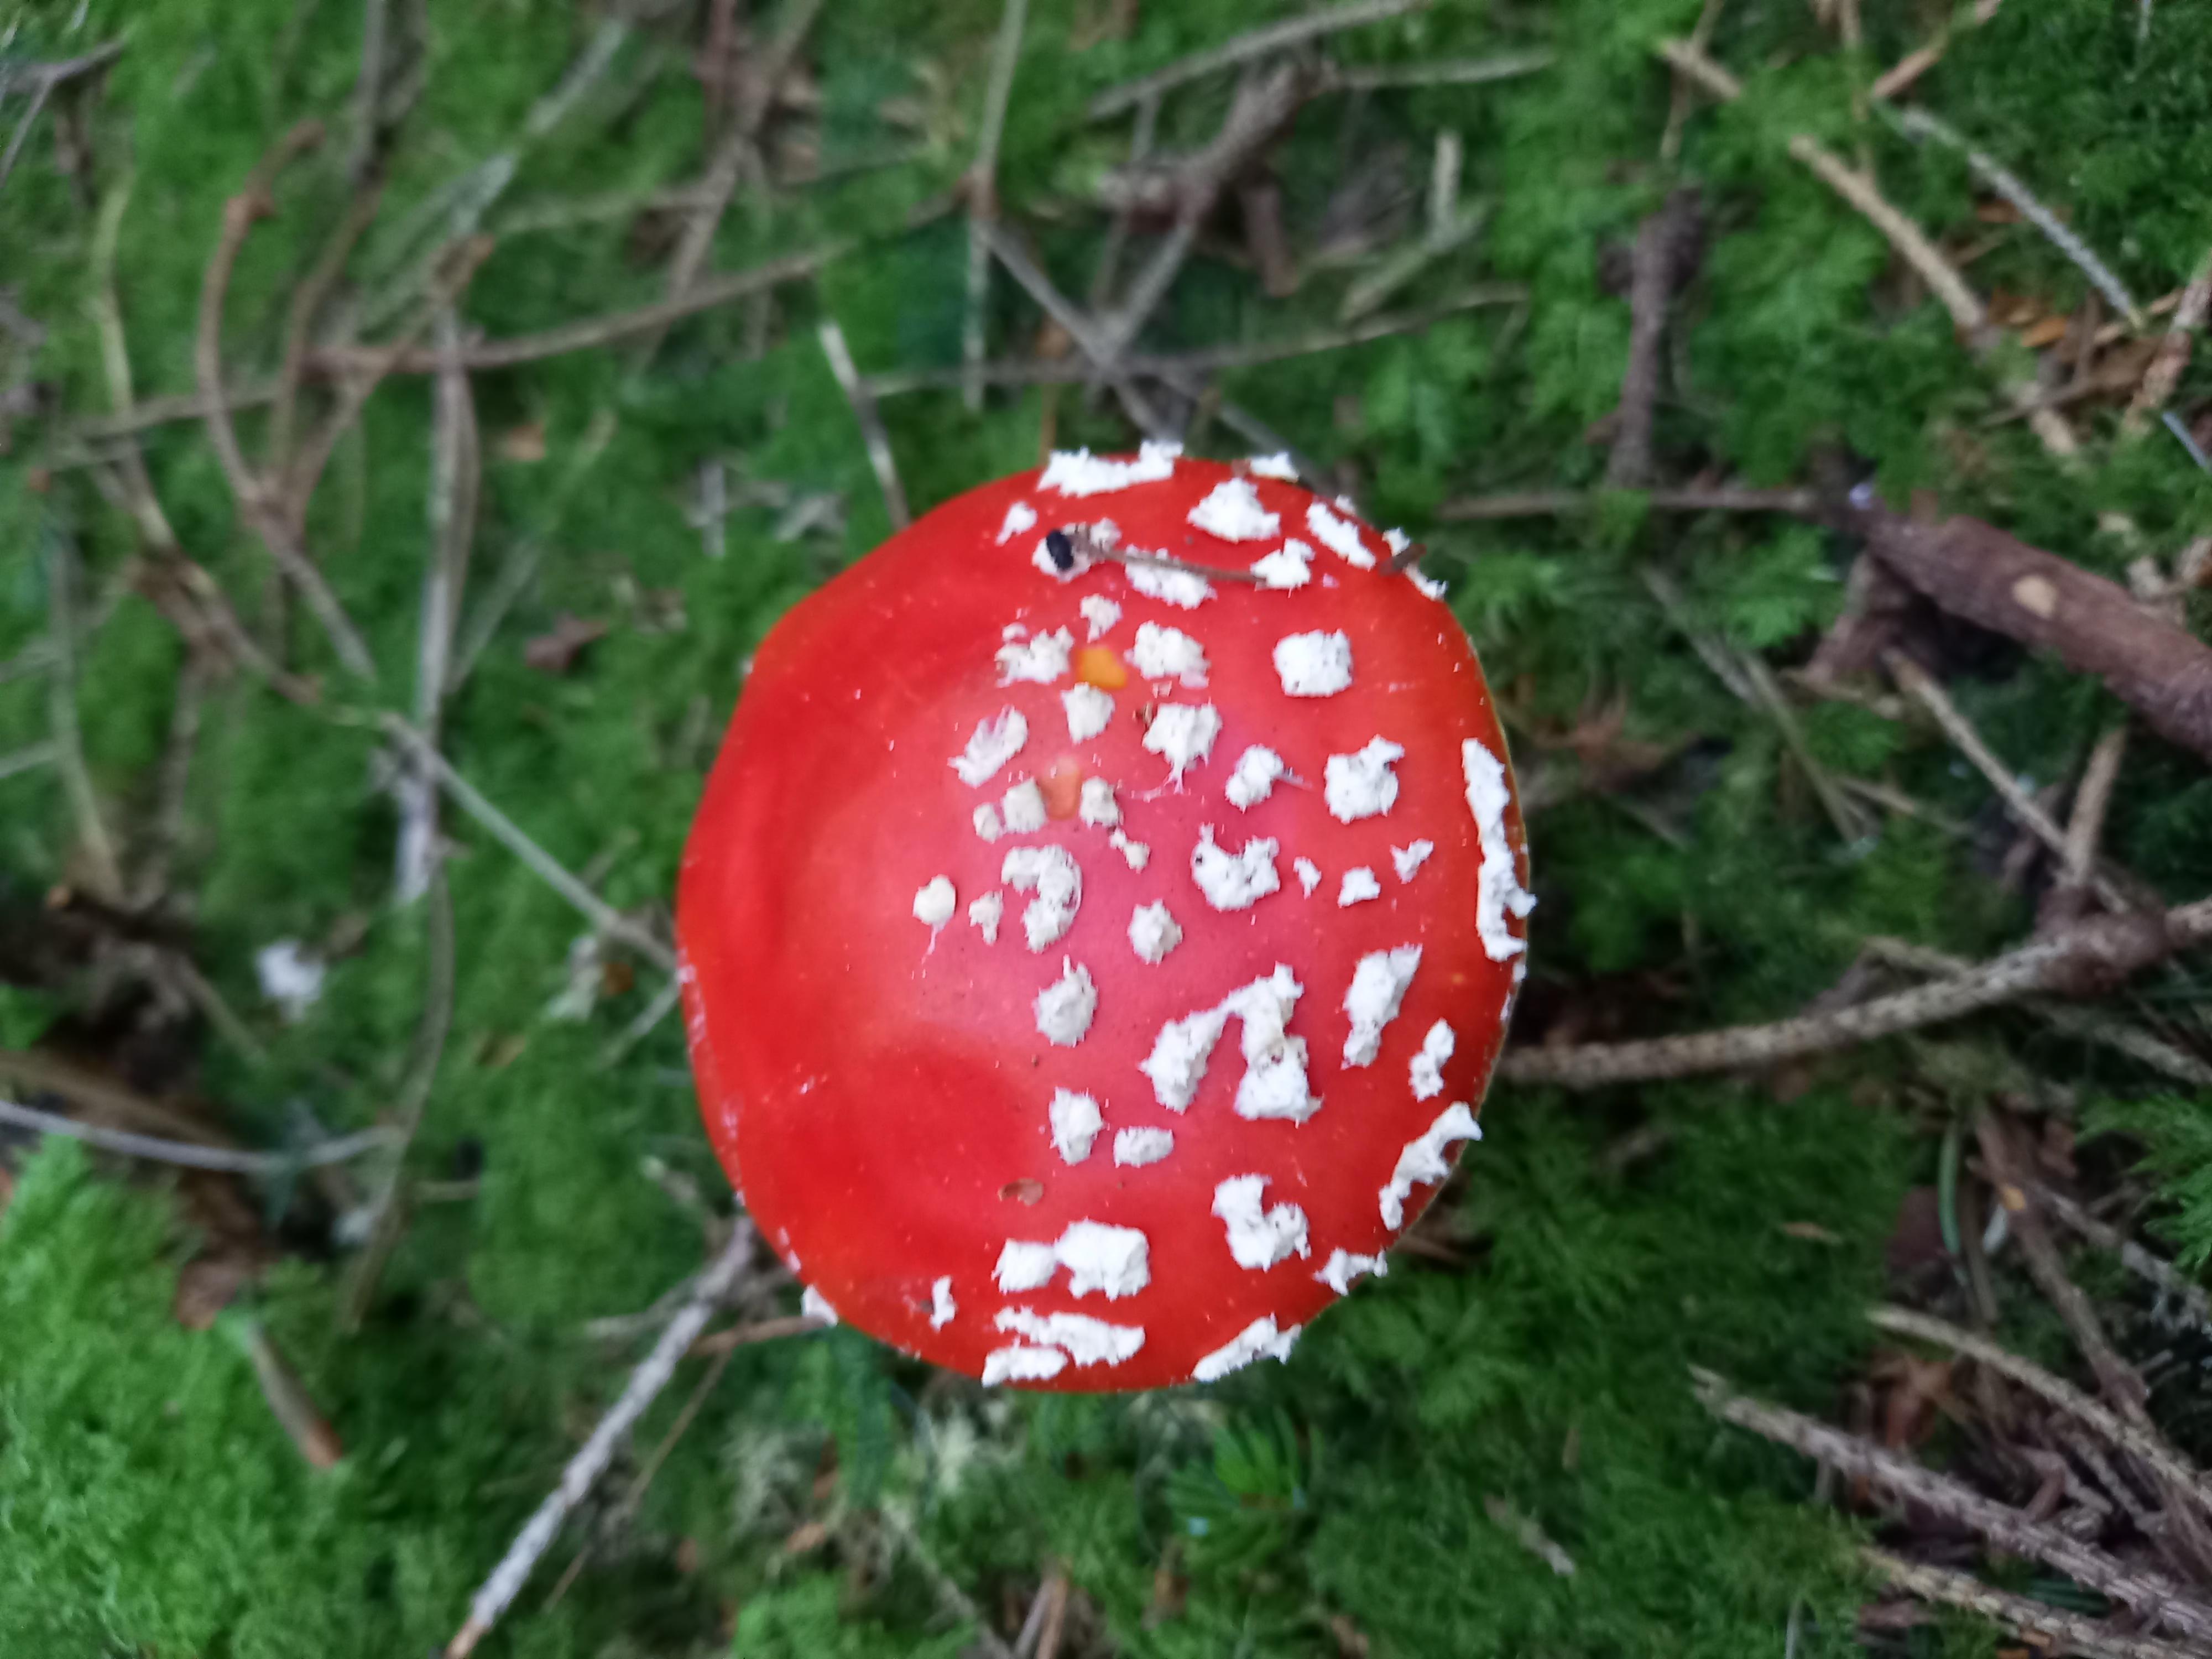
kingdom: Fungi
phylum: Basidiomycota
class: Agaricomycetes
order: Agaricales
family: Amanitaceae
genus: Amanita
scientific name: Amanita muscaria
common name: rød fluesvamp
